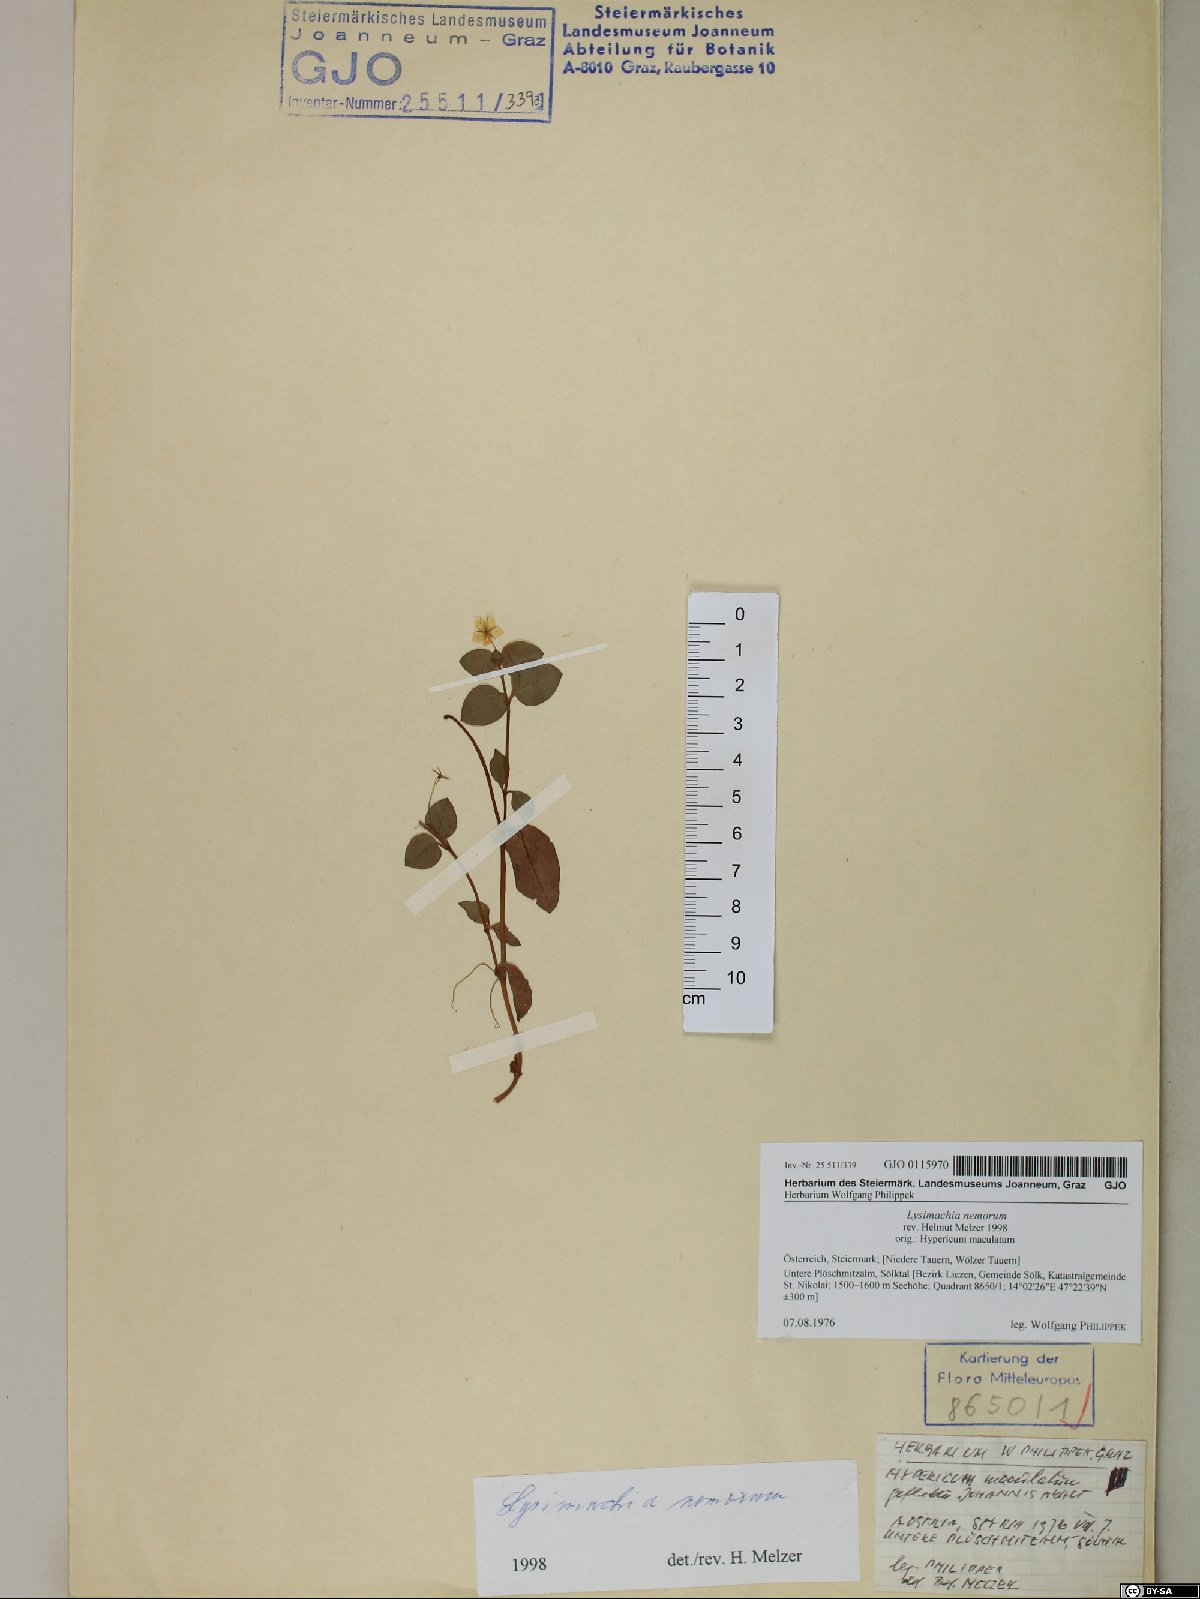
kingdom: Plantae
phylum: Tracheophyta
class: Magnoliopsida
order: Ericales
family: Primulaceae
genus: Lysimachia
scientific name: Lysimachia nemorum
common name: Yellow pimpernel
